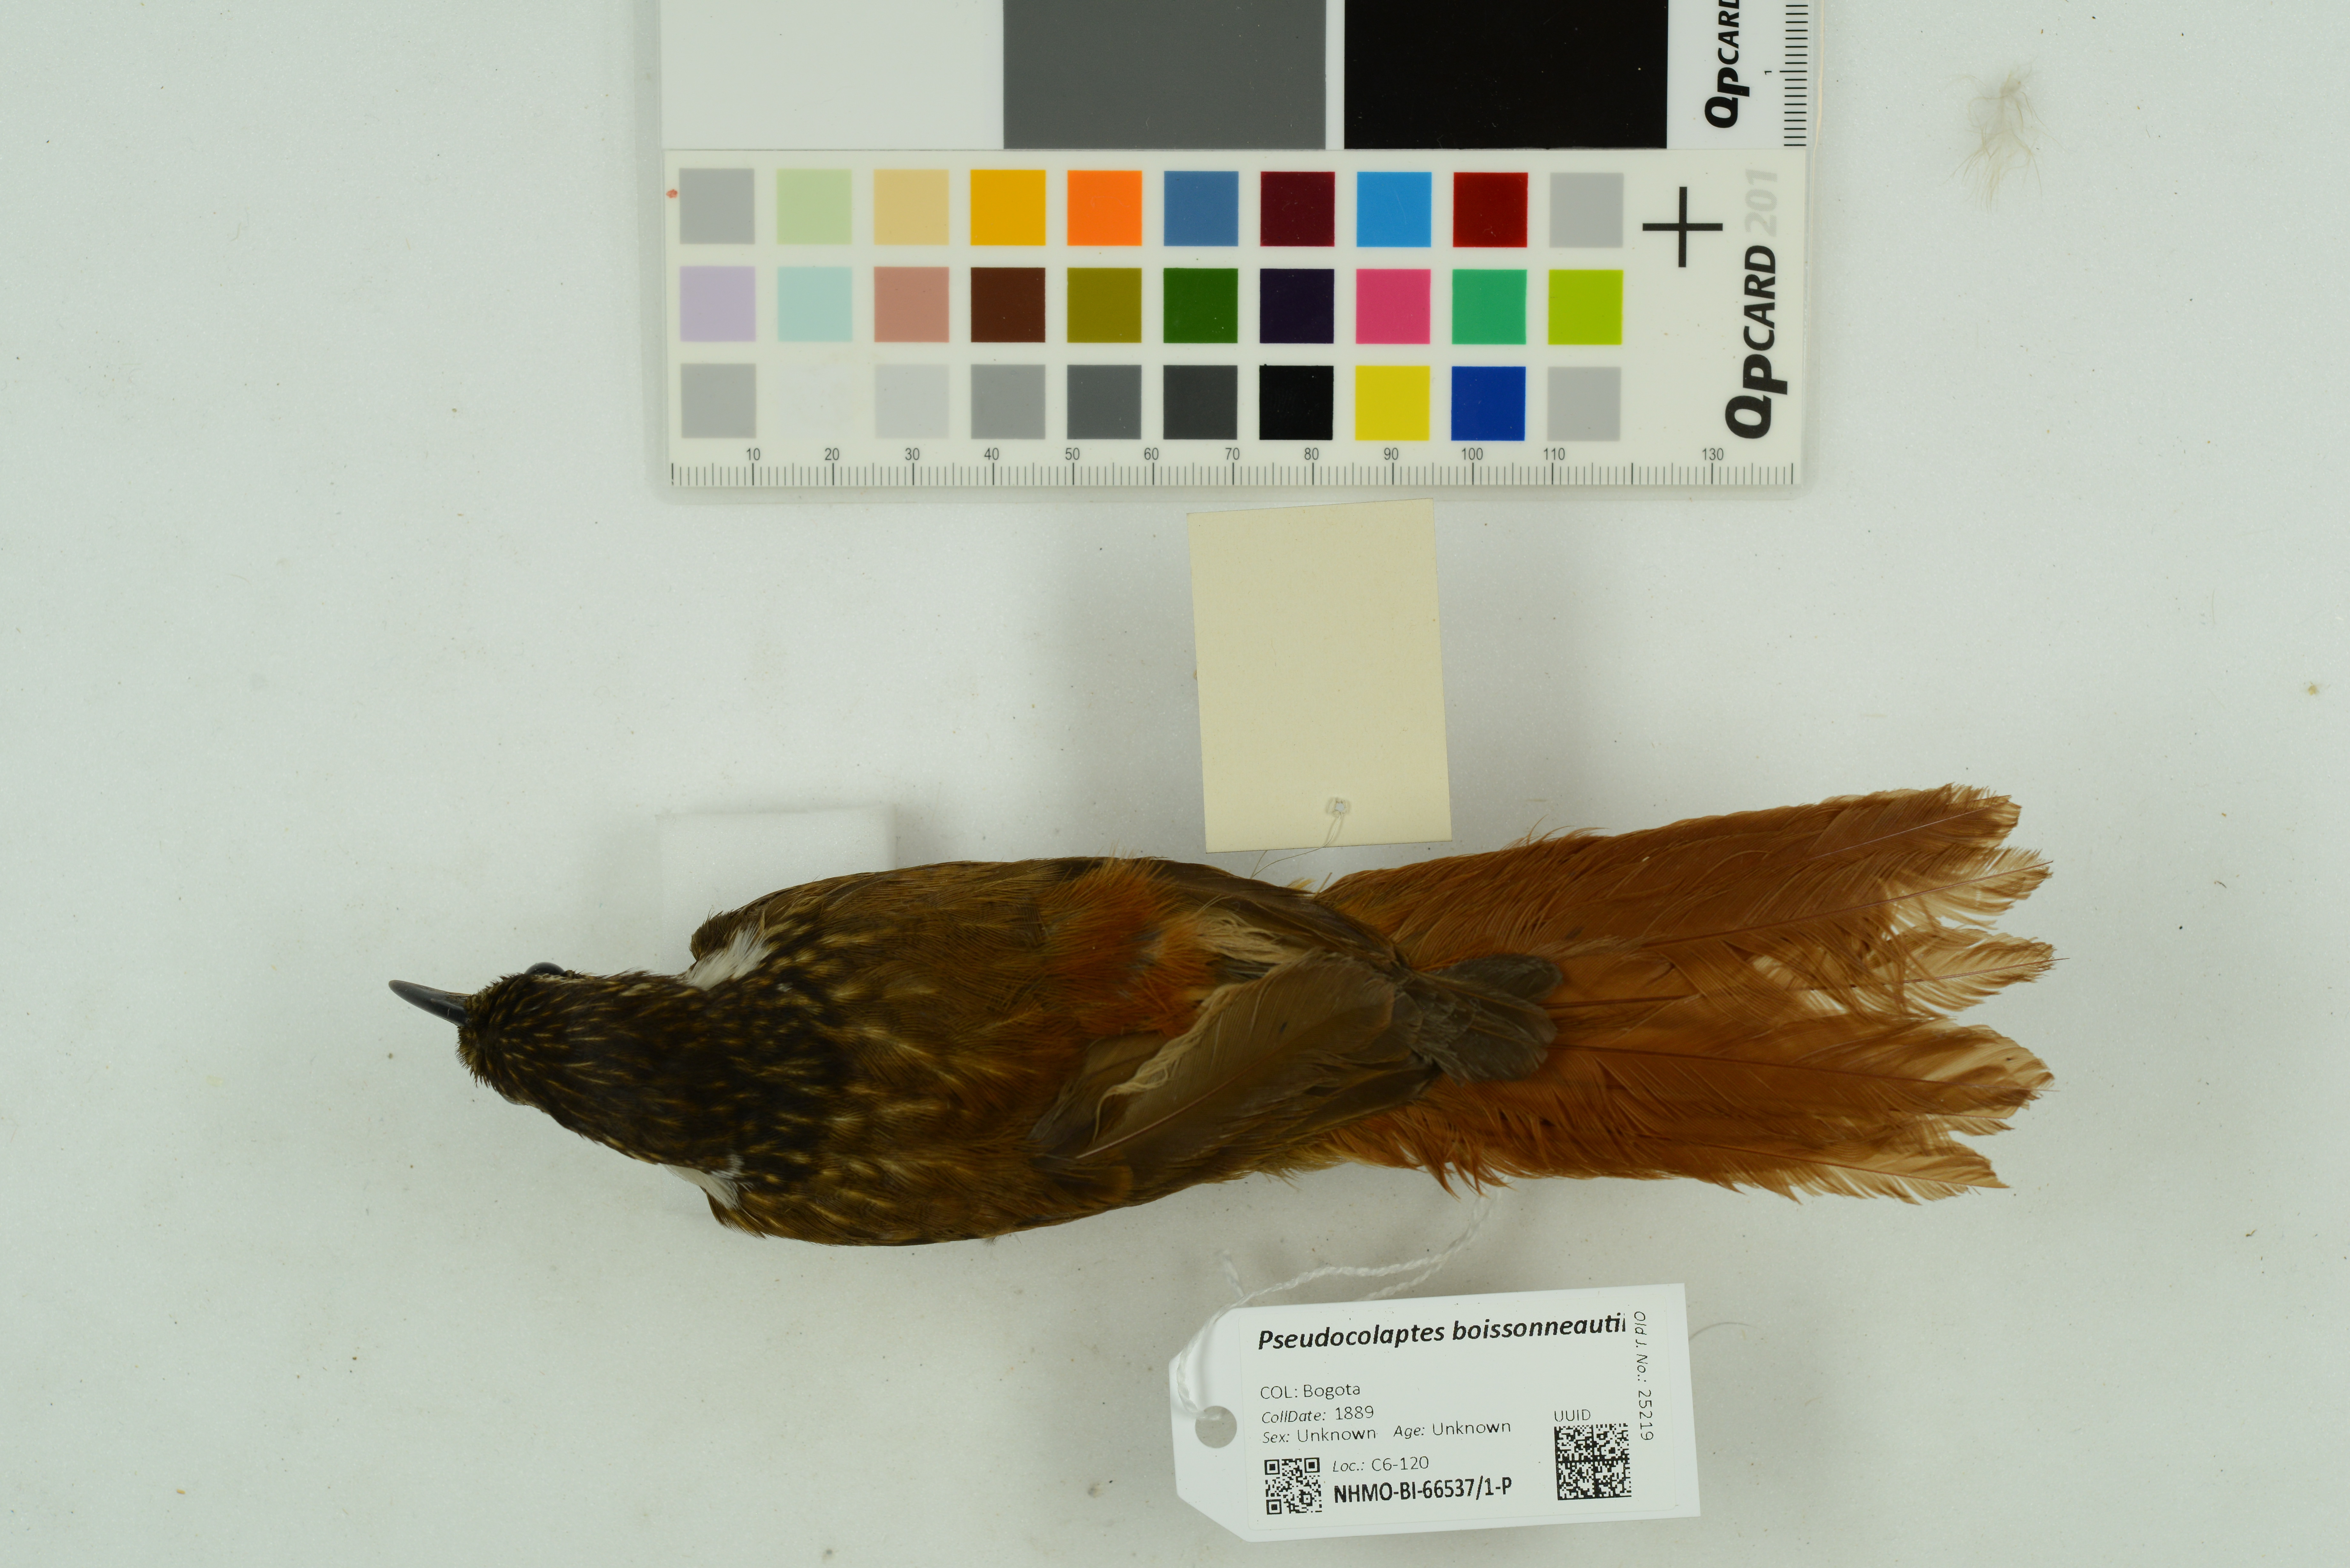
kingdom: Animalia
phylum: Chordata
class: Aves
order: Passeriformes
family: Furnariidae
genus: Pseudocolaptes
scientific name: Pseudocolaptes boissonneautii
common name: Streaked tuftedcheek
